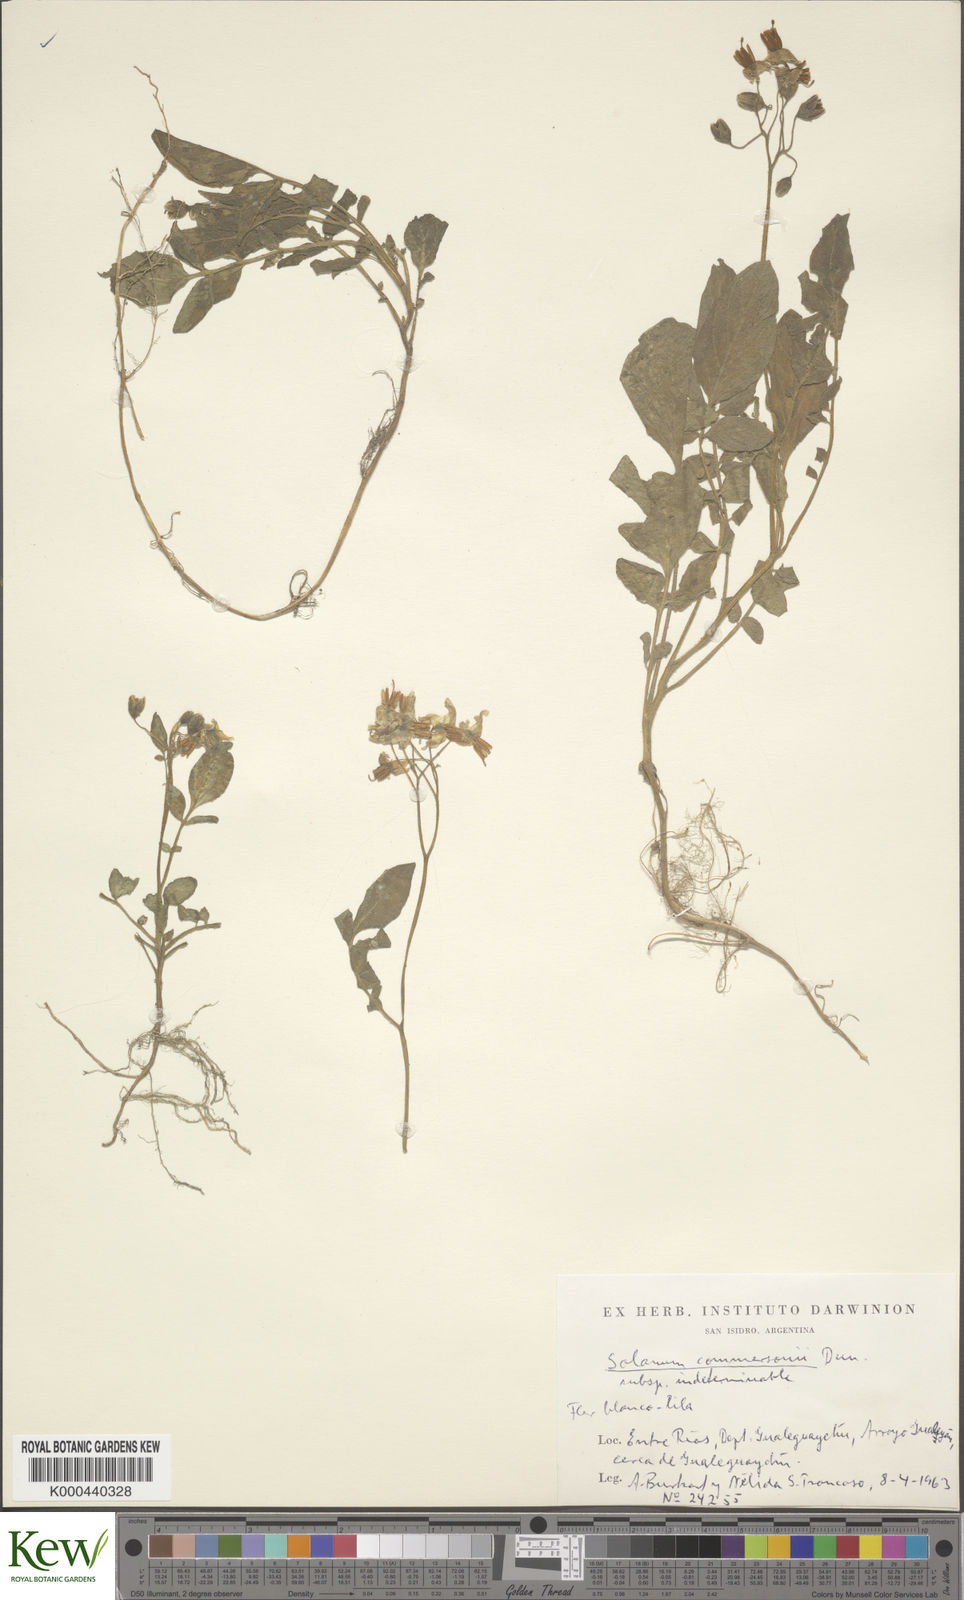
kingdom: Plantae
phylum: Tracheophyta
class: Magnoliopsida
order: Solanales
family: Solanaceae
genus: Solanum
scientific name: Solanum commersonii
